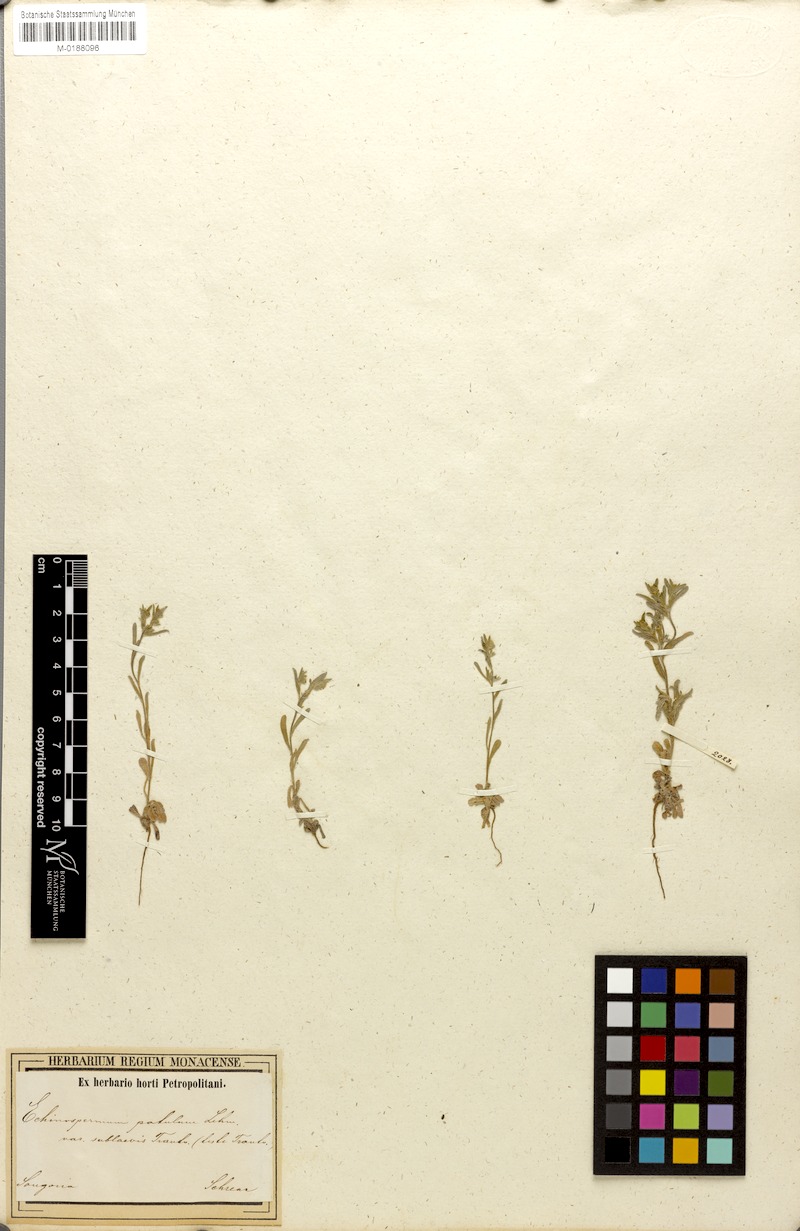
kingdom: Plantae
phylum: Tracheophyta
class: Magnoliopsida
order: Boraginales
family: Boraginaceae
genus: Lappula
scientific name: Lappula patula
